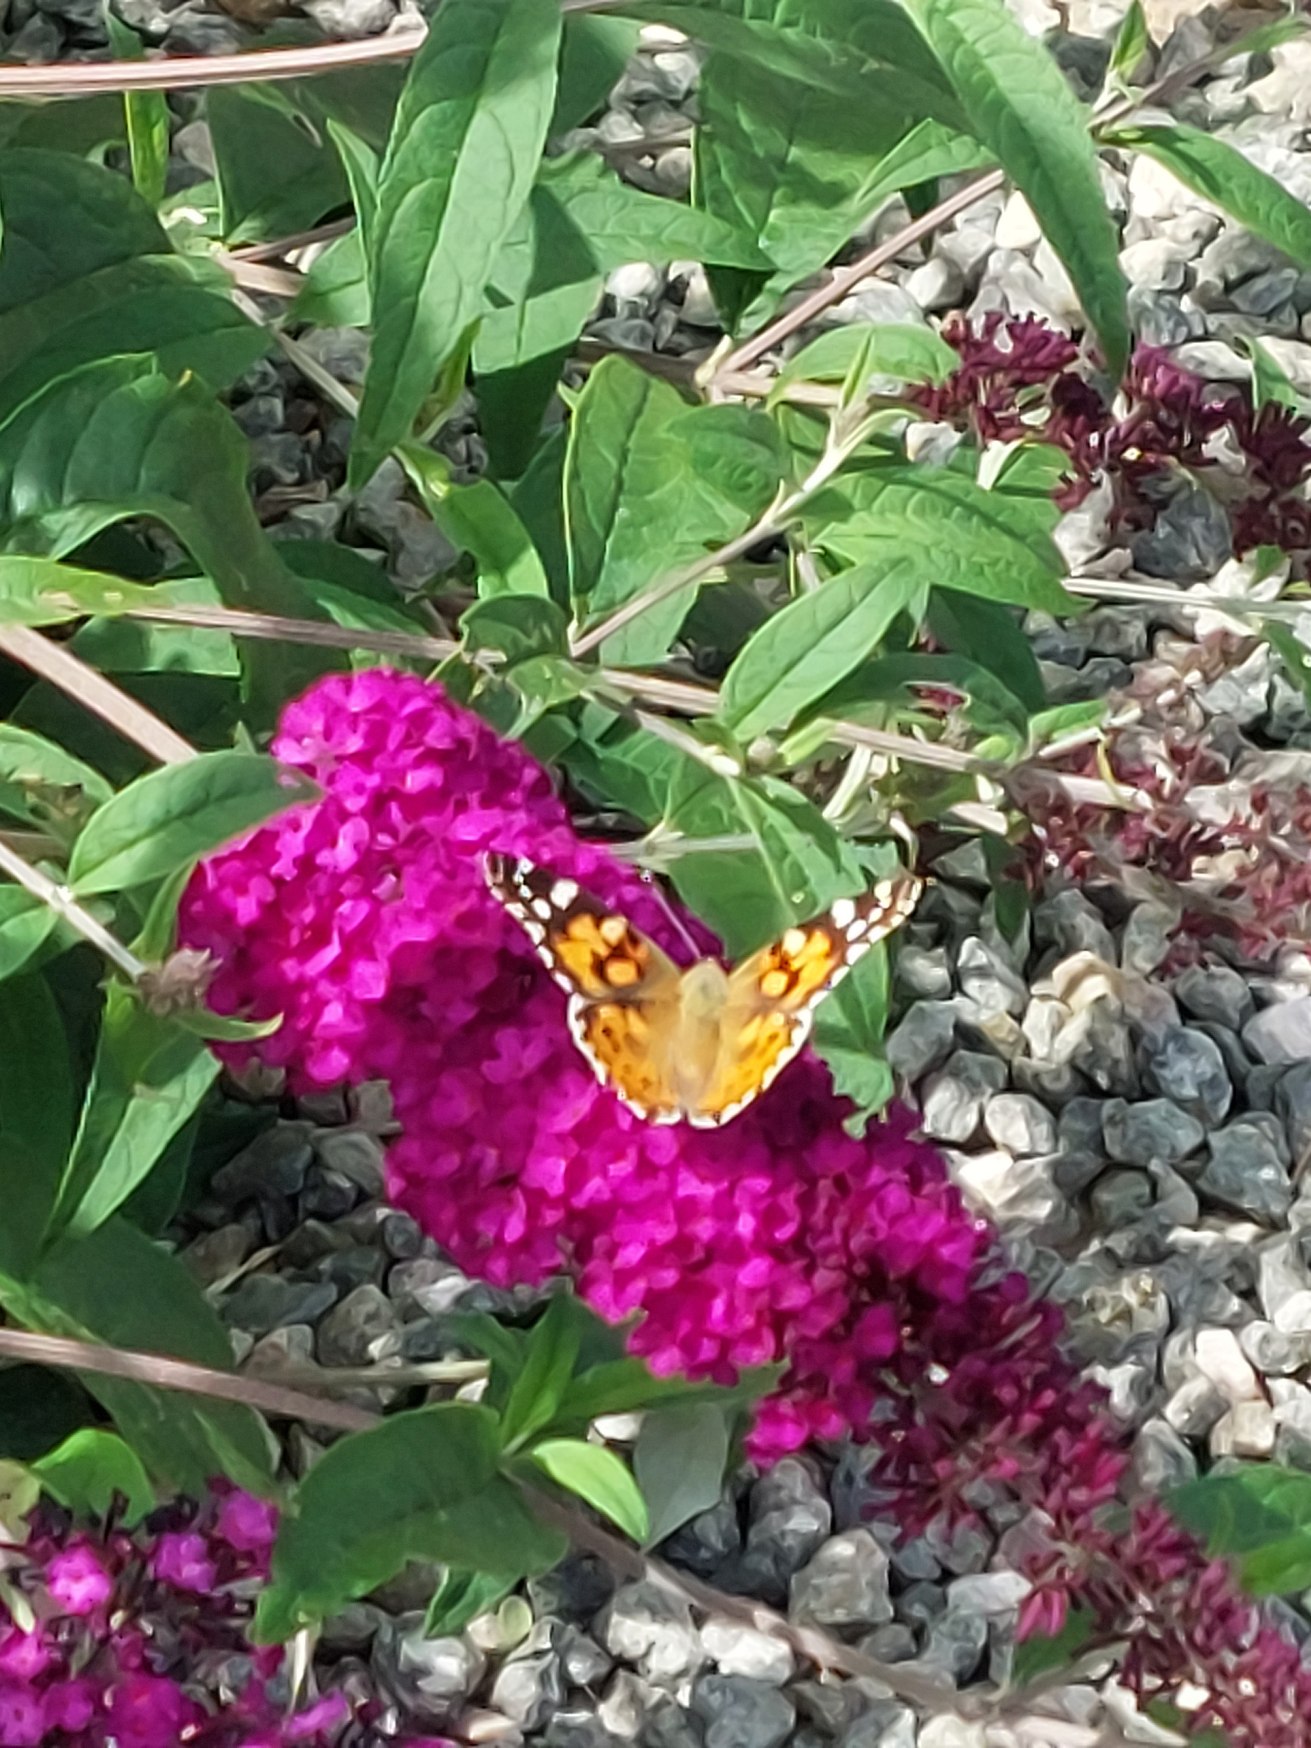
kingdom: Animalia
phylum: Arthropoda
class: Insecta
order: Lepidoptera
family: Nymphalidae
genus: Vanessa
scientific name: Vanessa cardui
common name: Tidselsommerfugl
